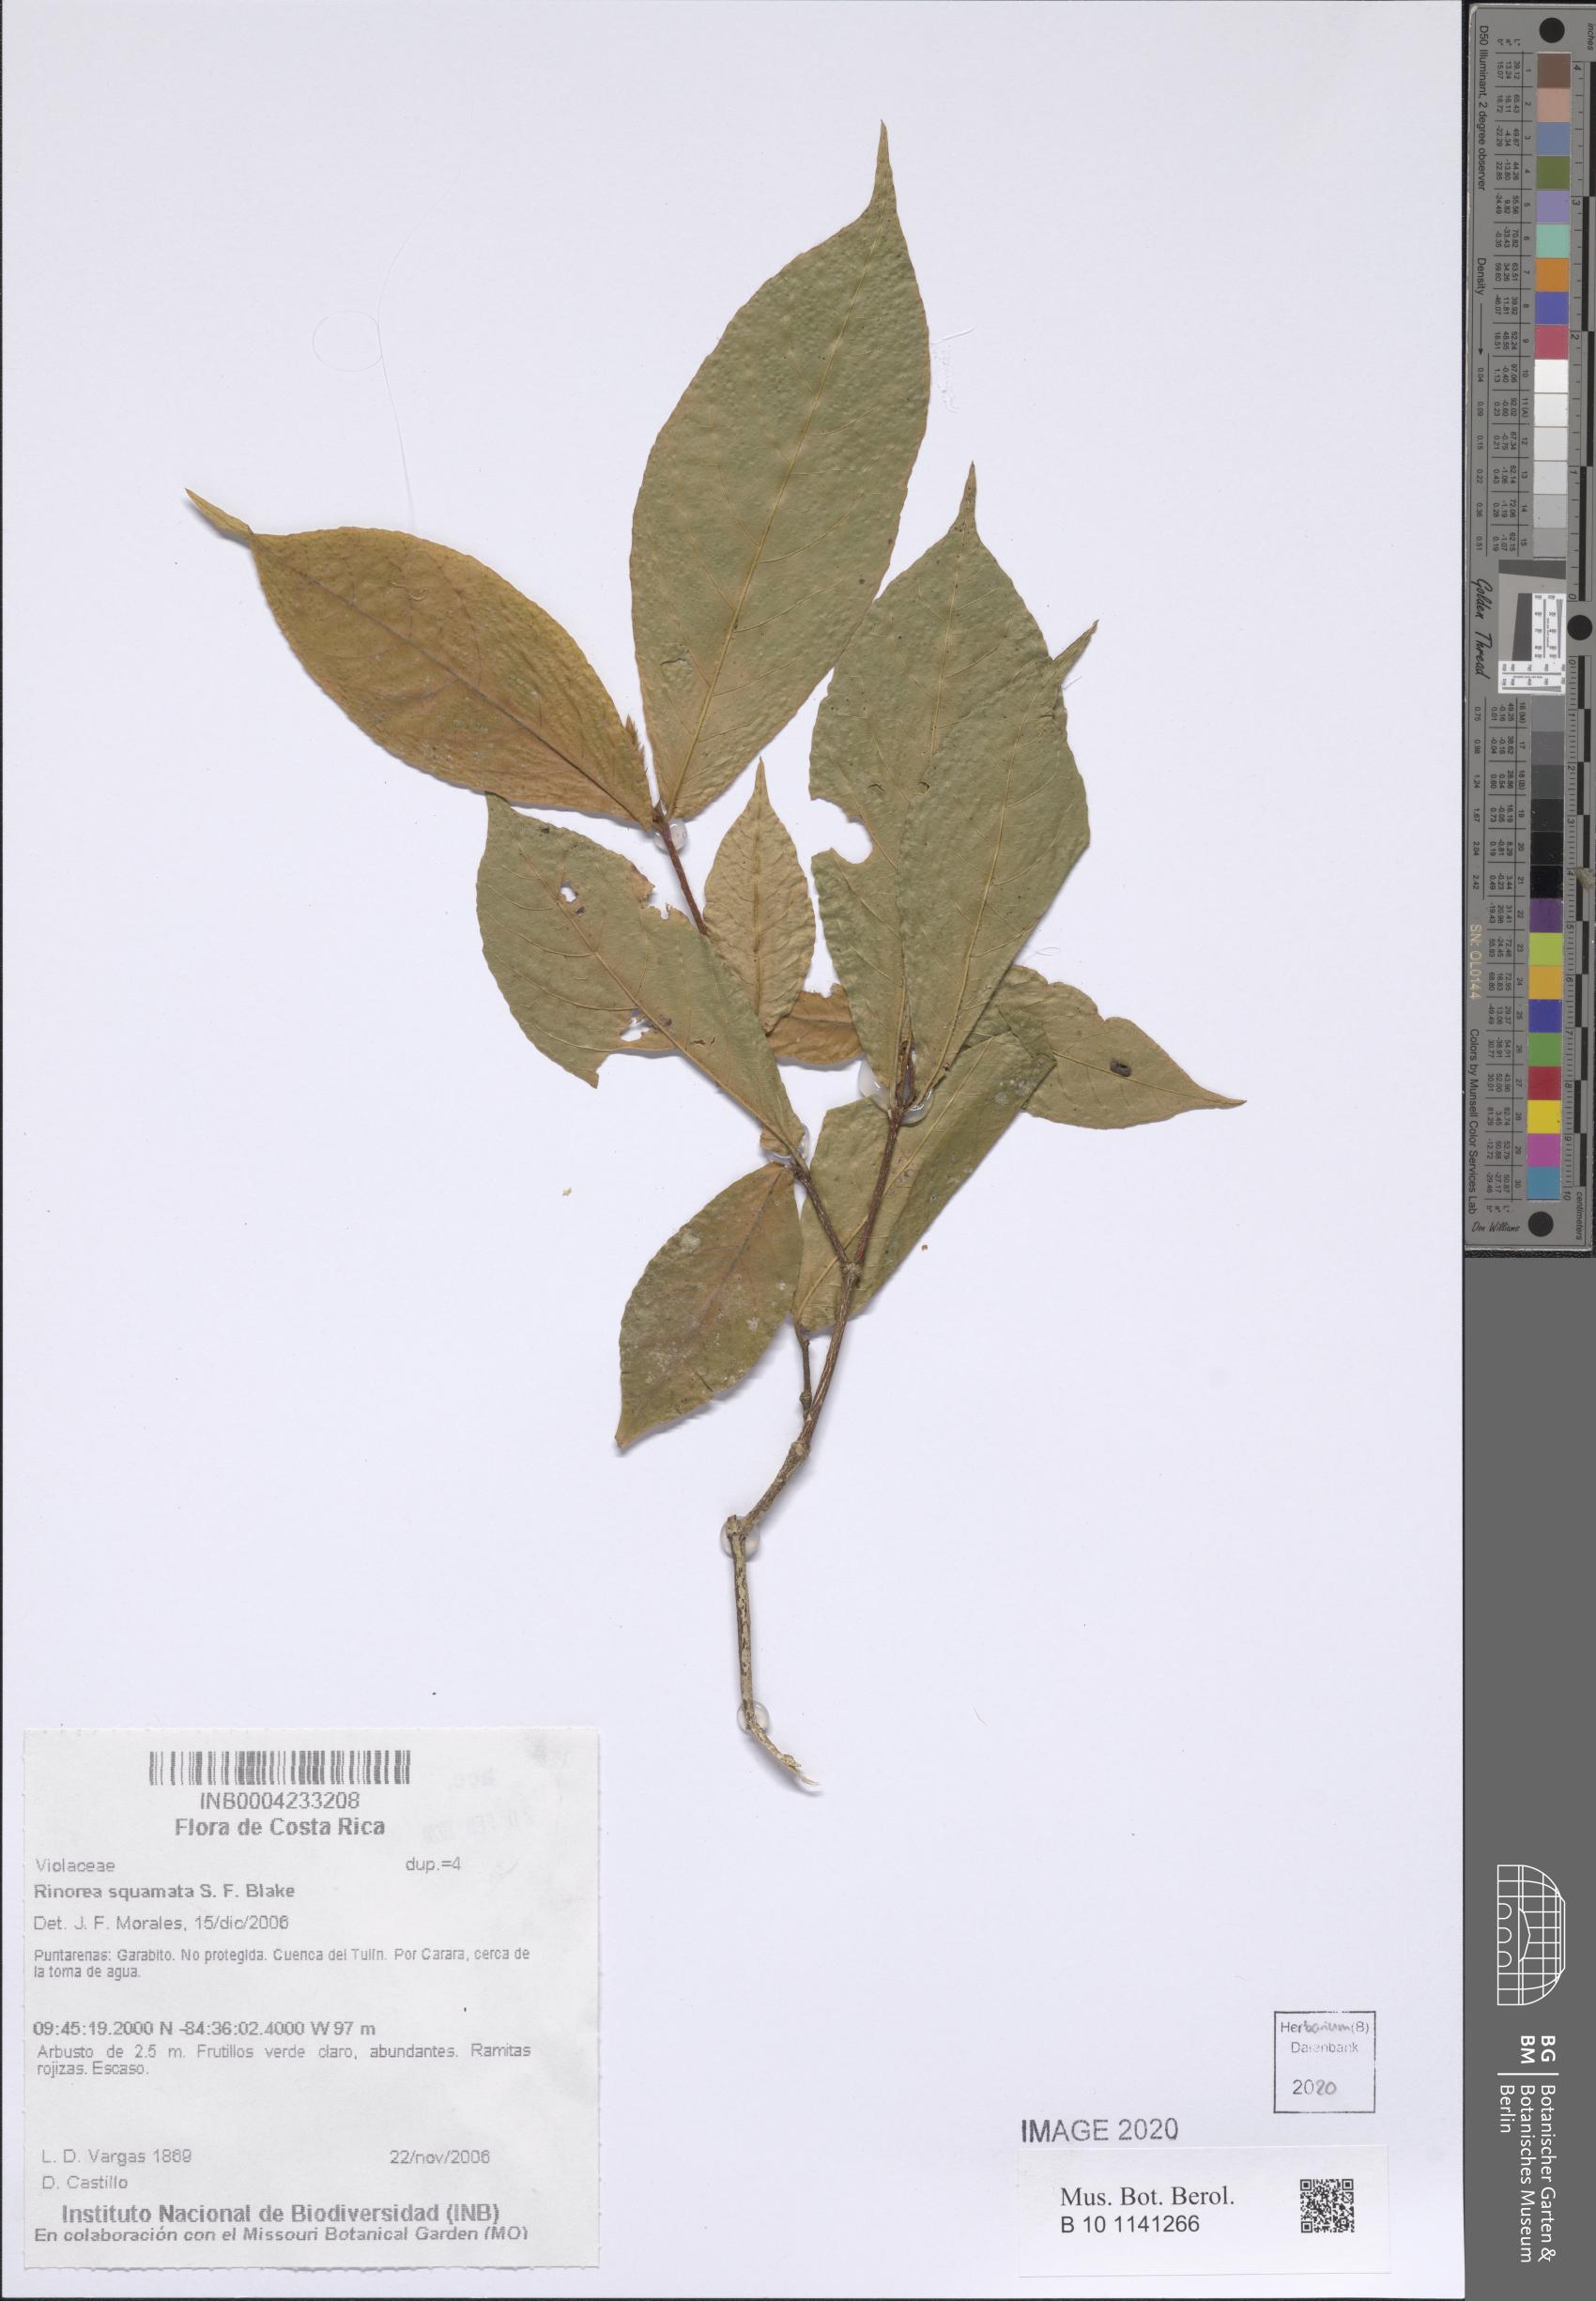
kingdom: Plantae
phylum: Tracheophyta
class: Magnoliopsida
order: Malpighiales
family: Violaceae
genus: Rinorea
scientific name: Rinorea squamata
